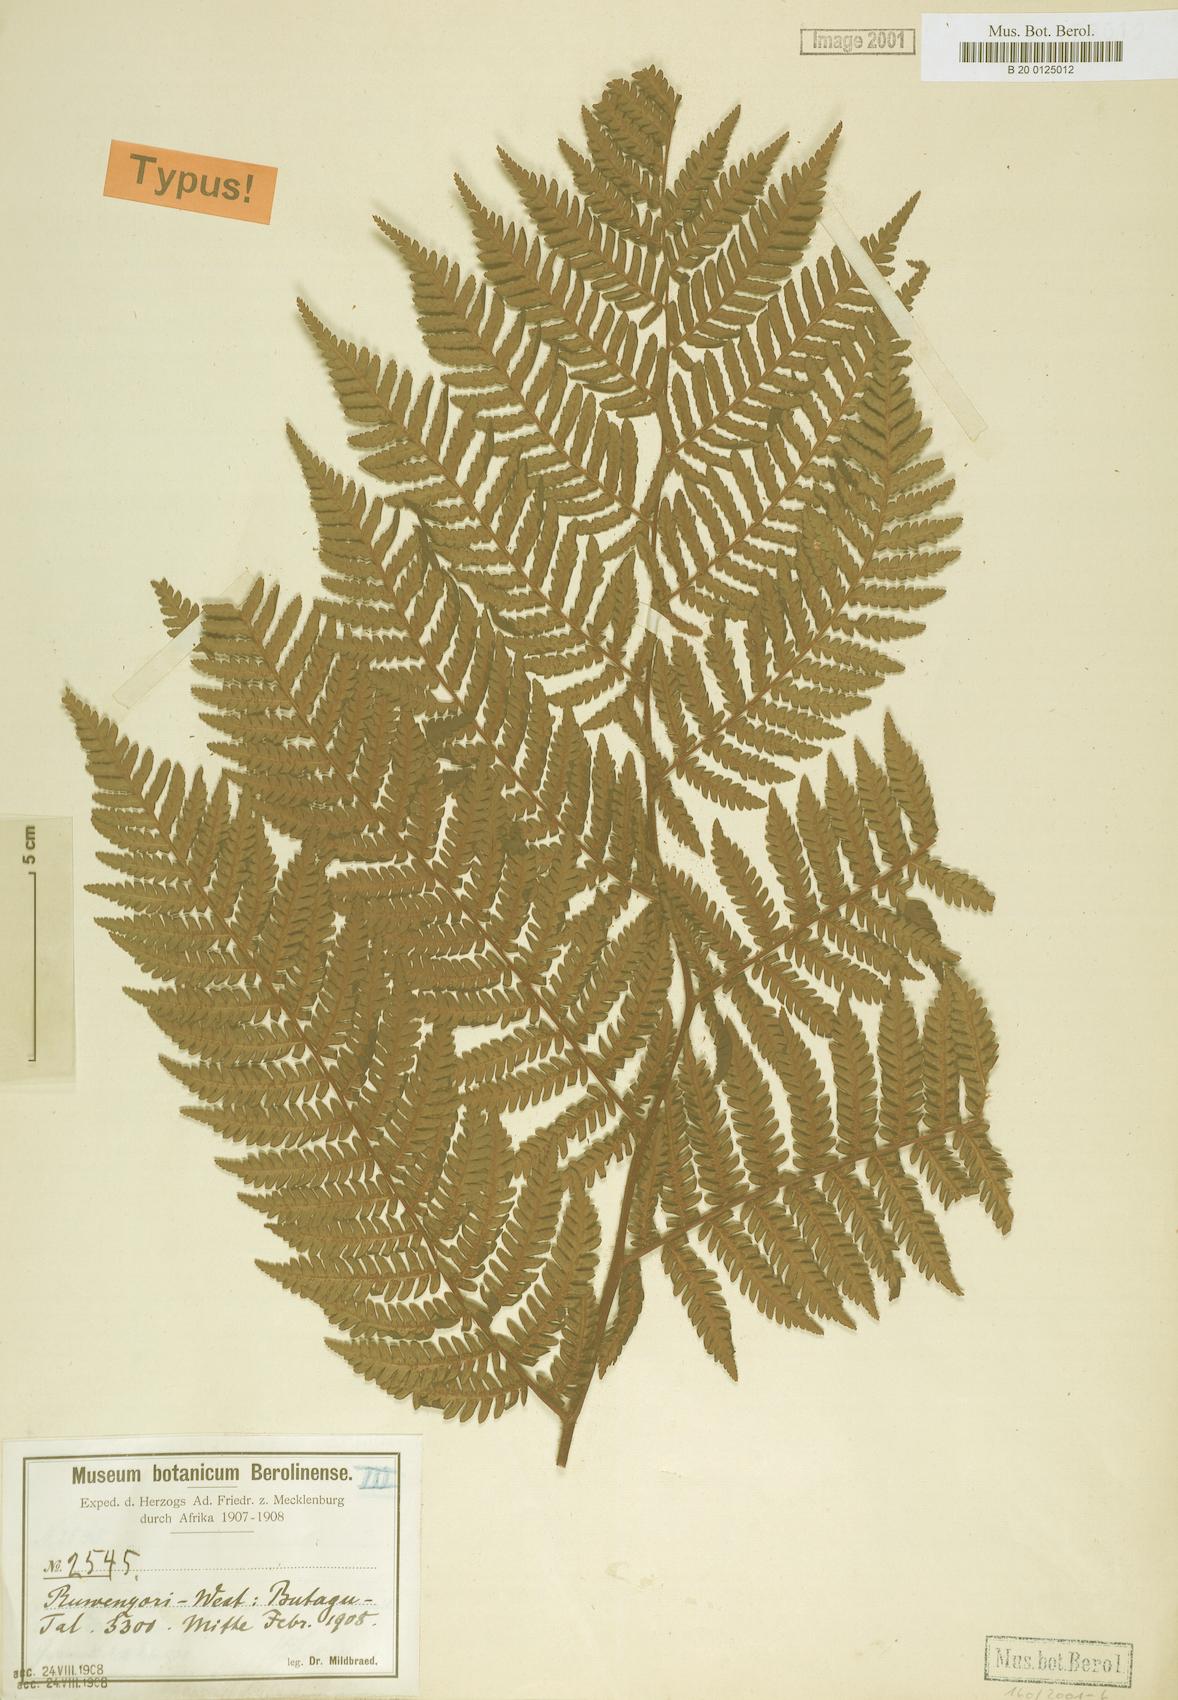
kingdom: Plantae
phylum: Tracheophyta
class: Polypodiopsida
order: Cyatheales
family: Cyatheaceae
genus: Gymnosphaera
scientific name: Gymnosphaera mildbraedii
